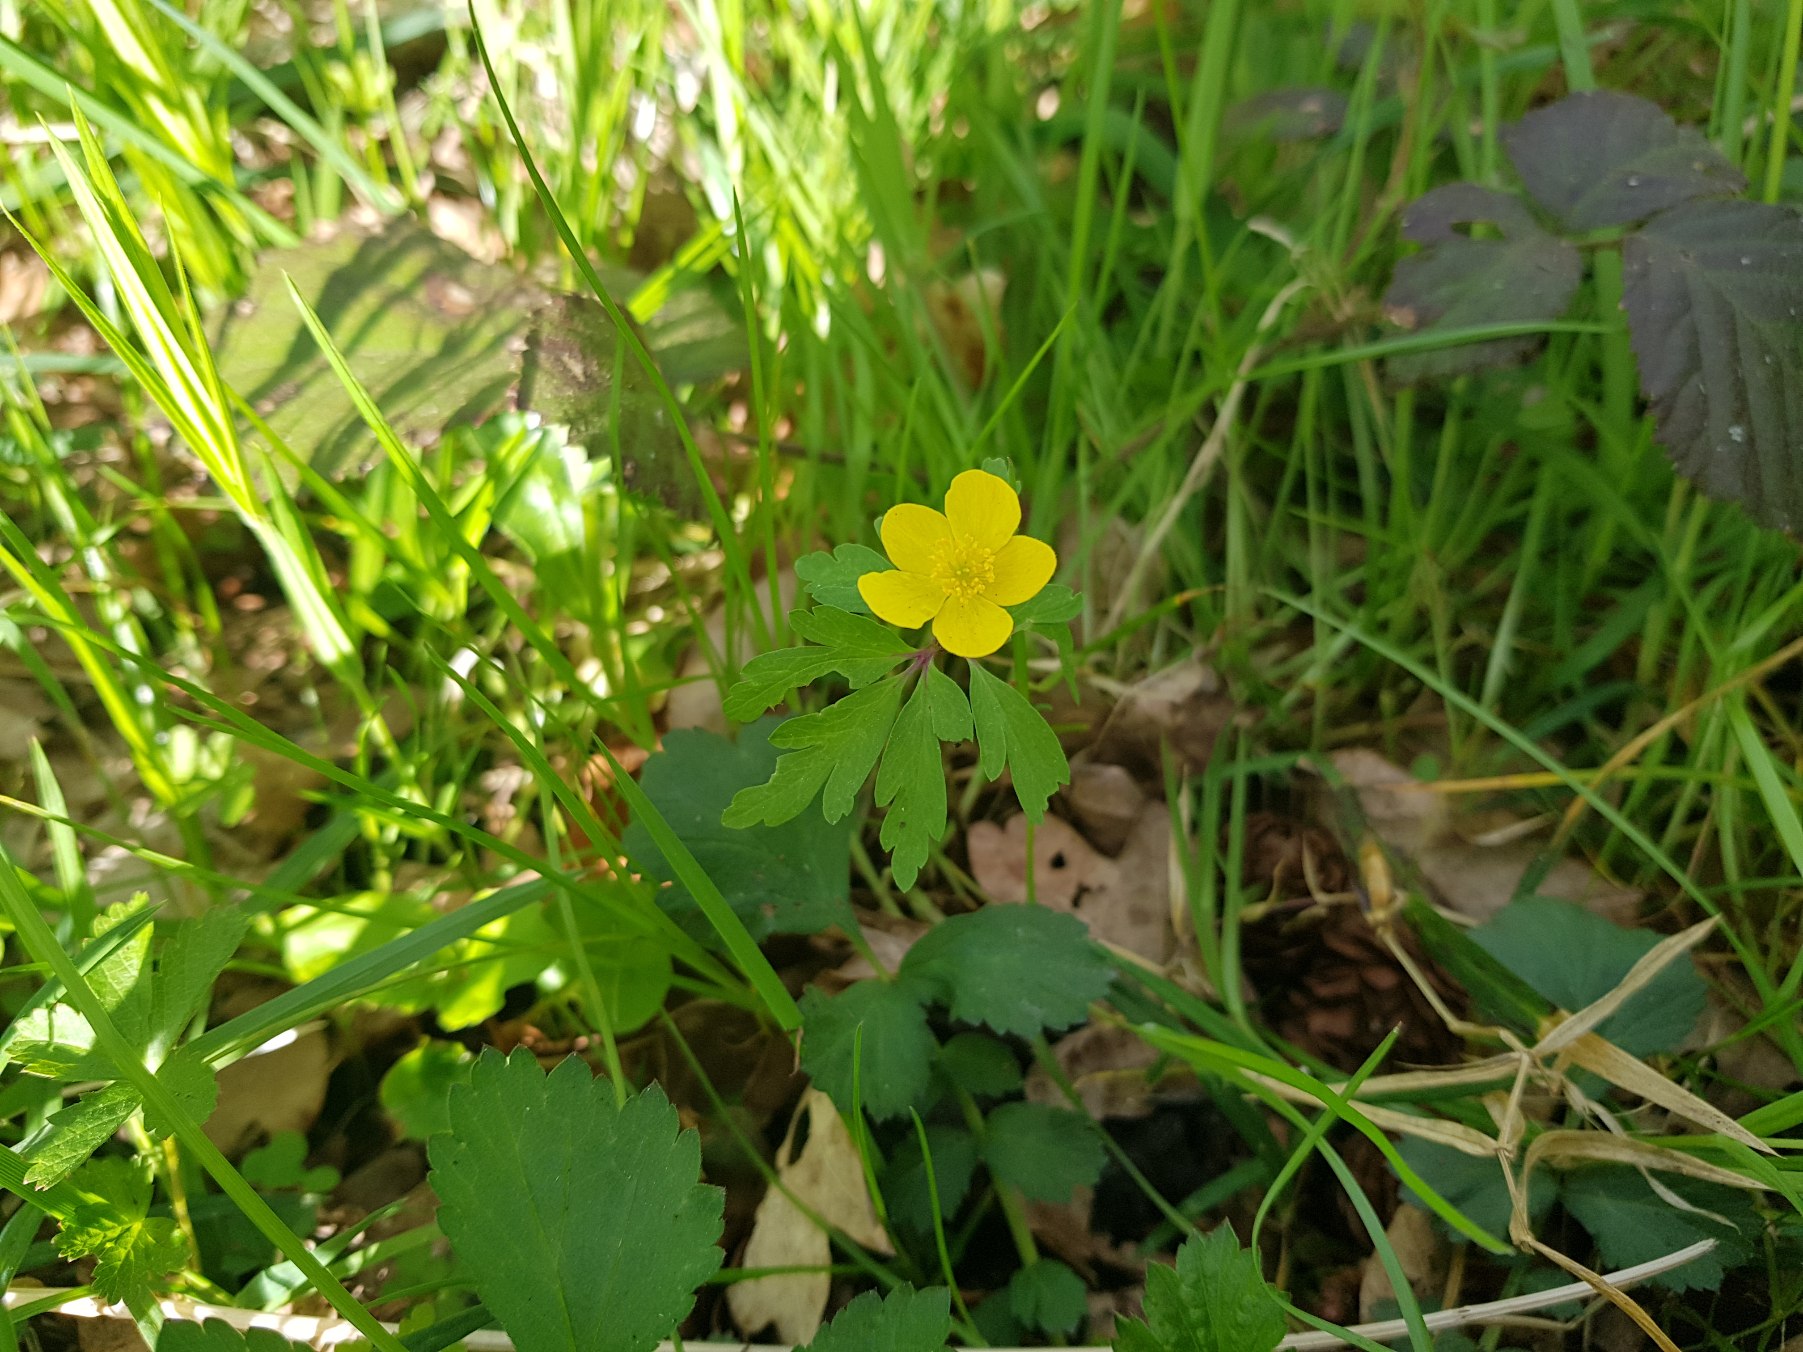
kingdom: Plantae
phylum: Tracheophyta
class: Magnoliopsida
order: Ranunculales
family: Ranunculaceae
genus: Anemone
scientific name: Anemone ranunculoides
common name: Gul anemone
